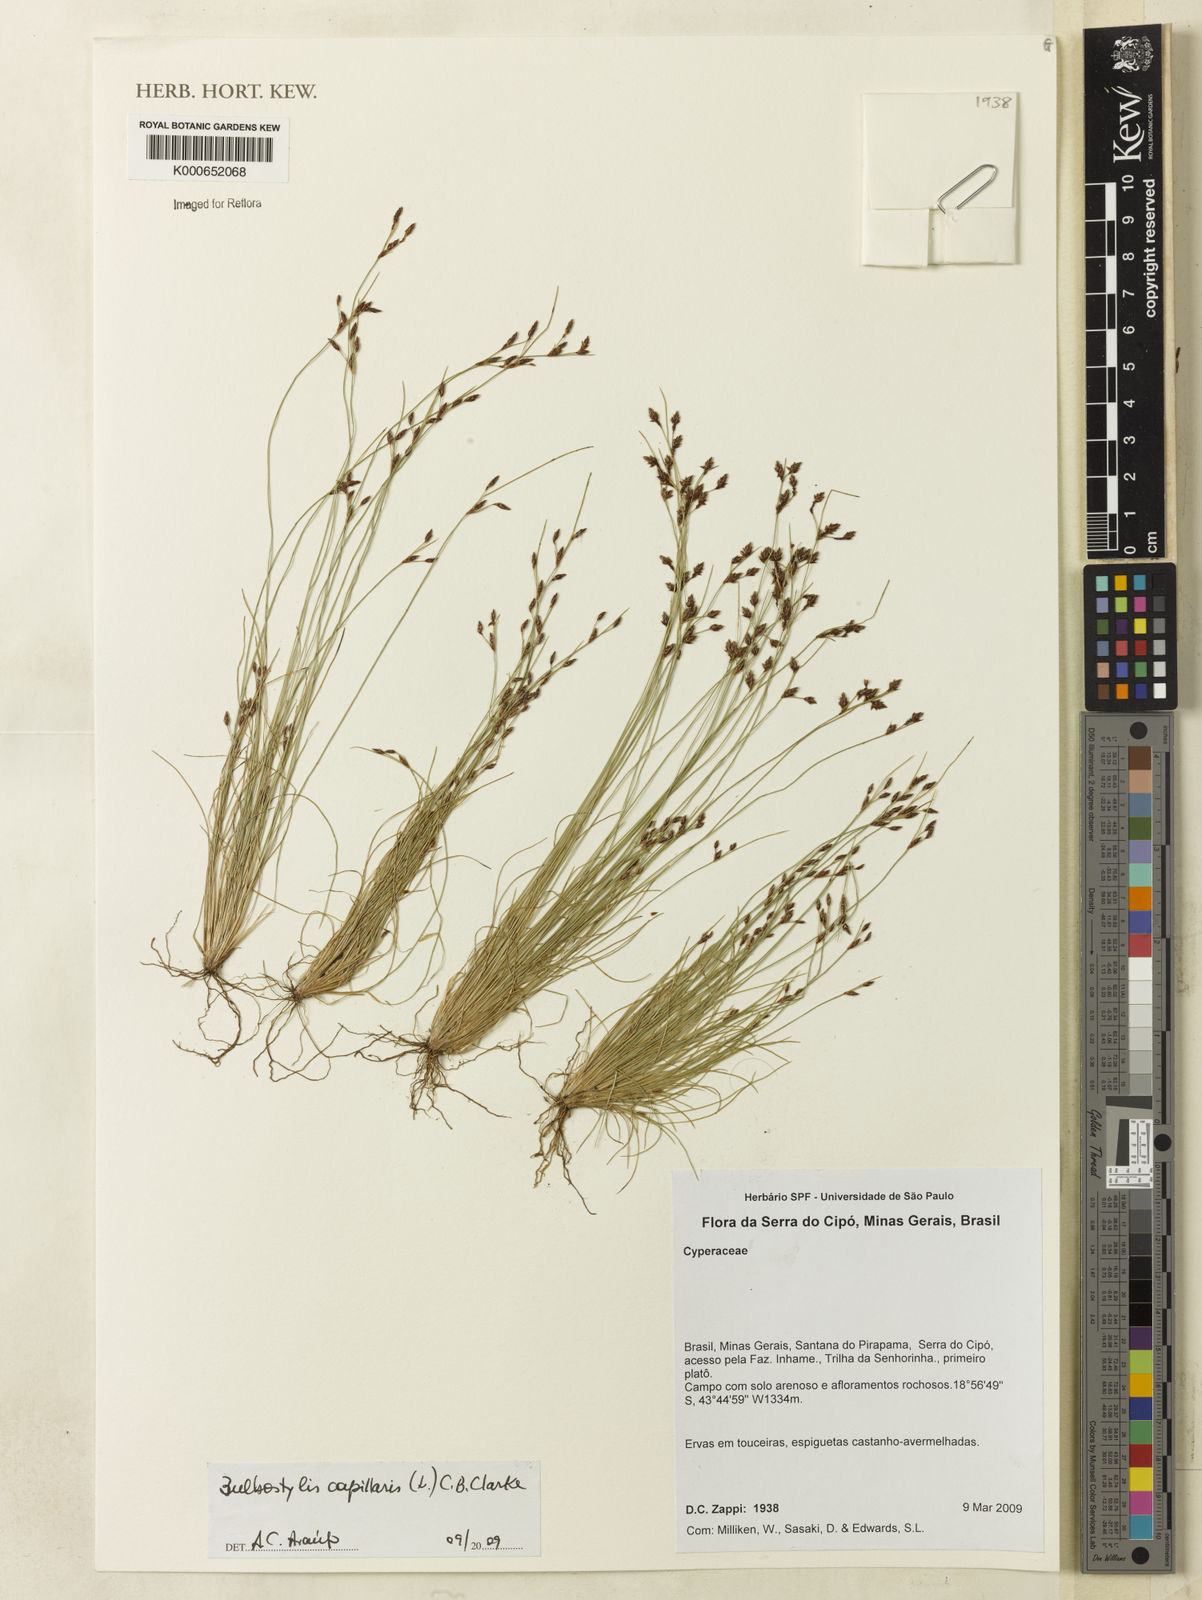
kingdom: Plantae
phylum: Tracheophyta
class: Liliopsida
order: Poales
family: Cyperaceae
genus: Bulbostylis
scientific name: Bulbostylis capillaris
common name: Densetuft hairsedge
